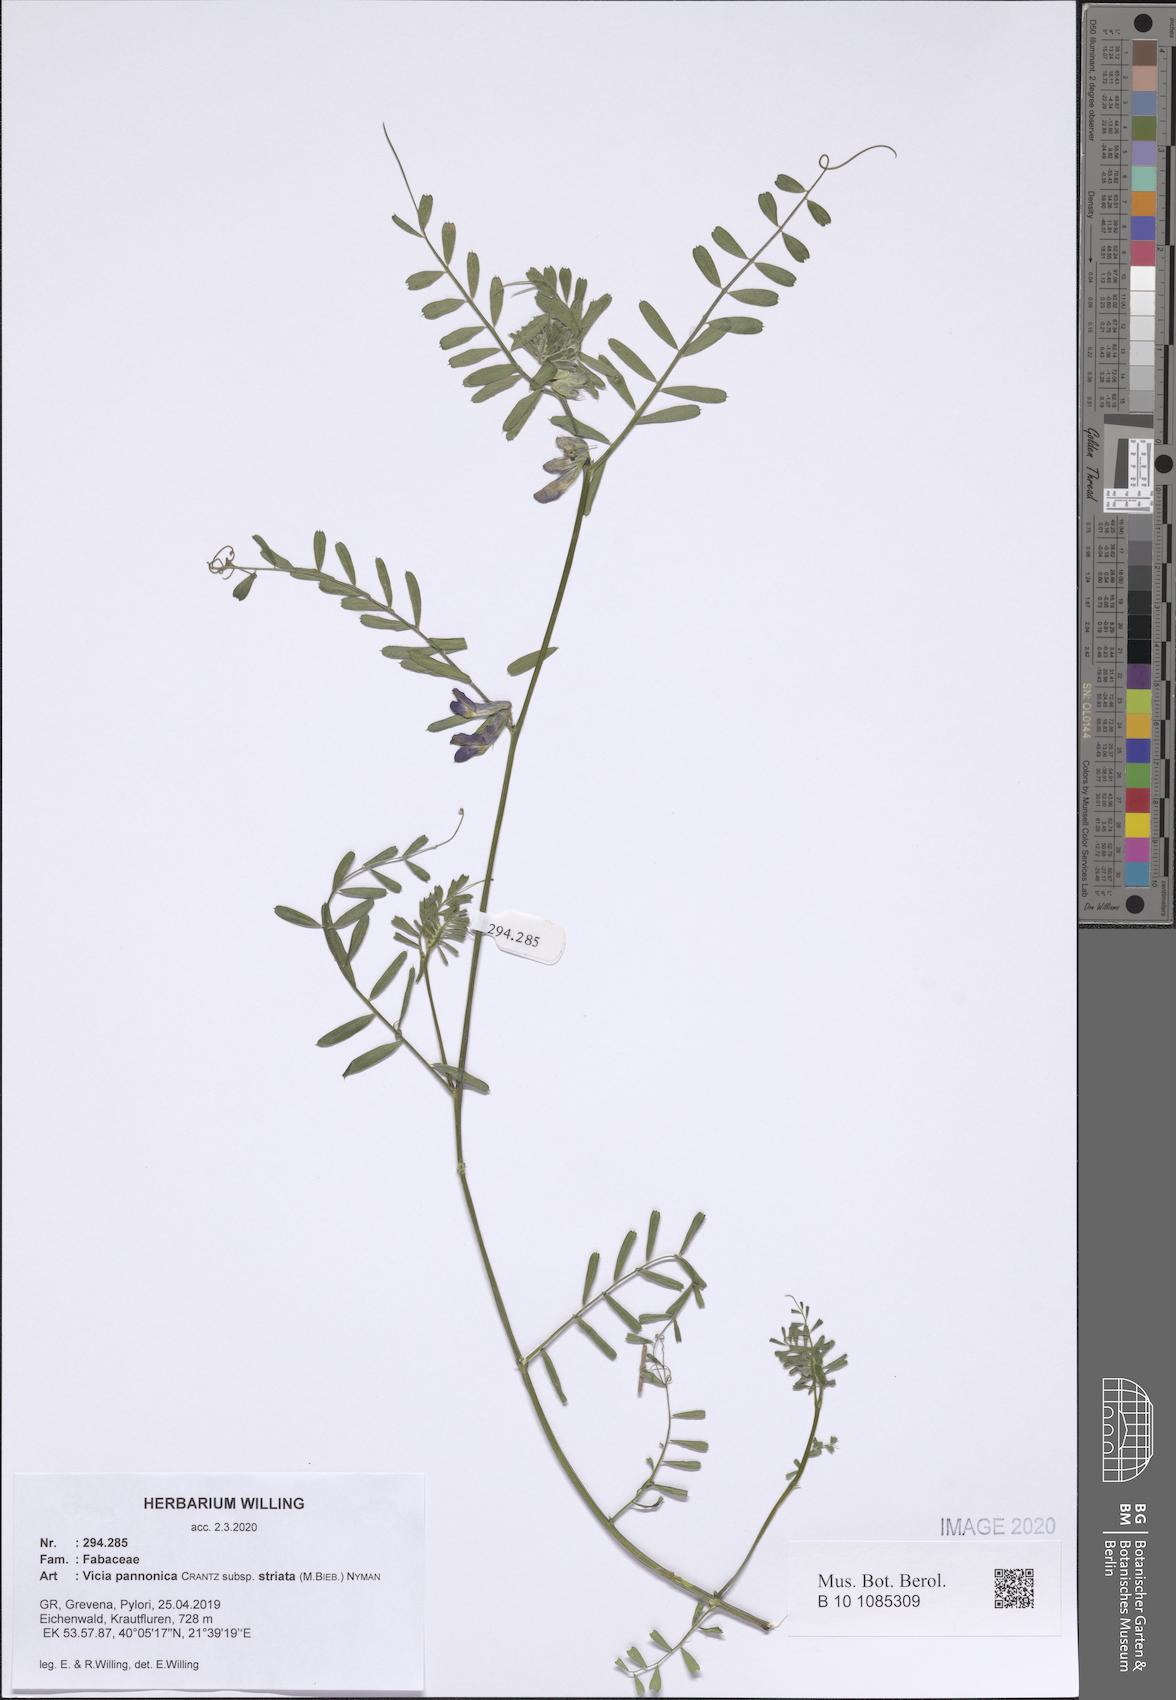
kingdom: Plantae
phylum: Tracheophyta
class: Magnoliopsida
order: Fabales
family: Fabaceae
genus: Vicia
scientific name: Vicia pannonica
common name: Hungarian vetch
